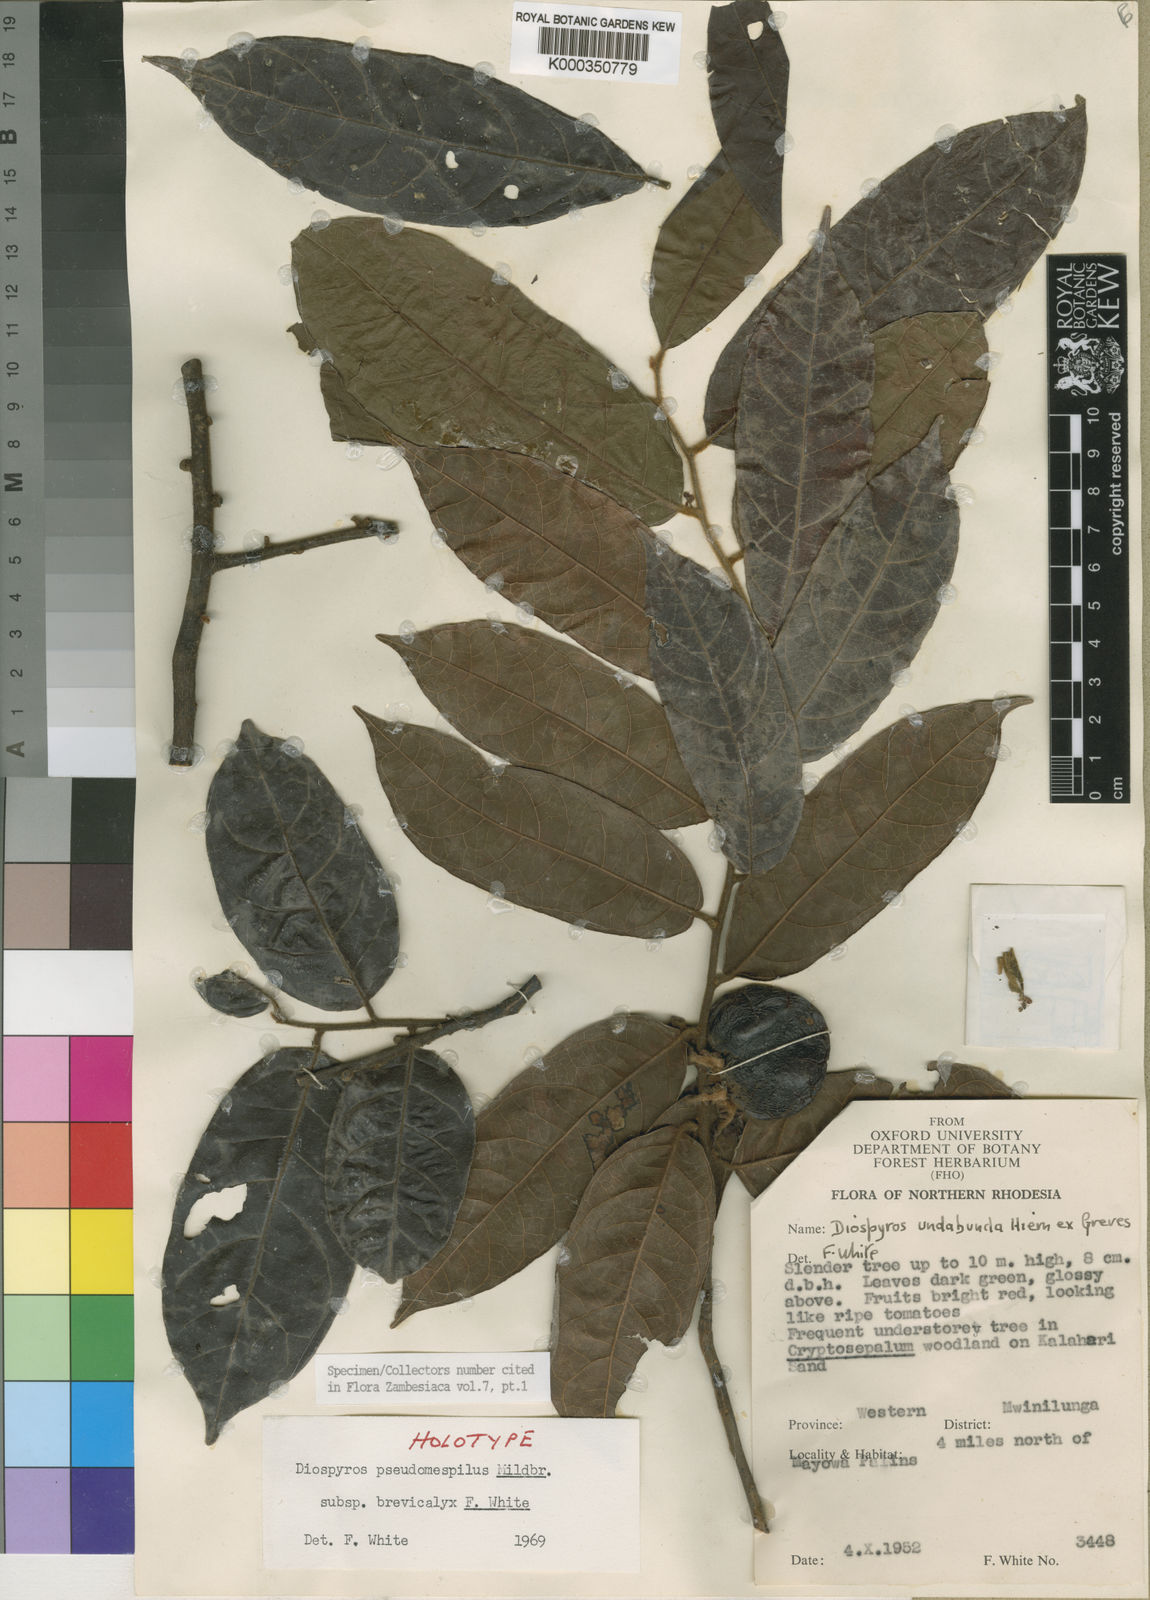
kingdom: Plantae
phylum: Tracheophyta
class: Magnoliopsida
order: Ericales
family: Ebenaceae
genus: Diospyros
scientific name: Diospyros pseudomespilus
